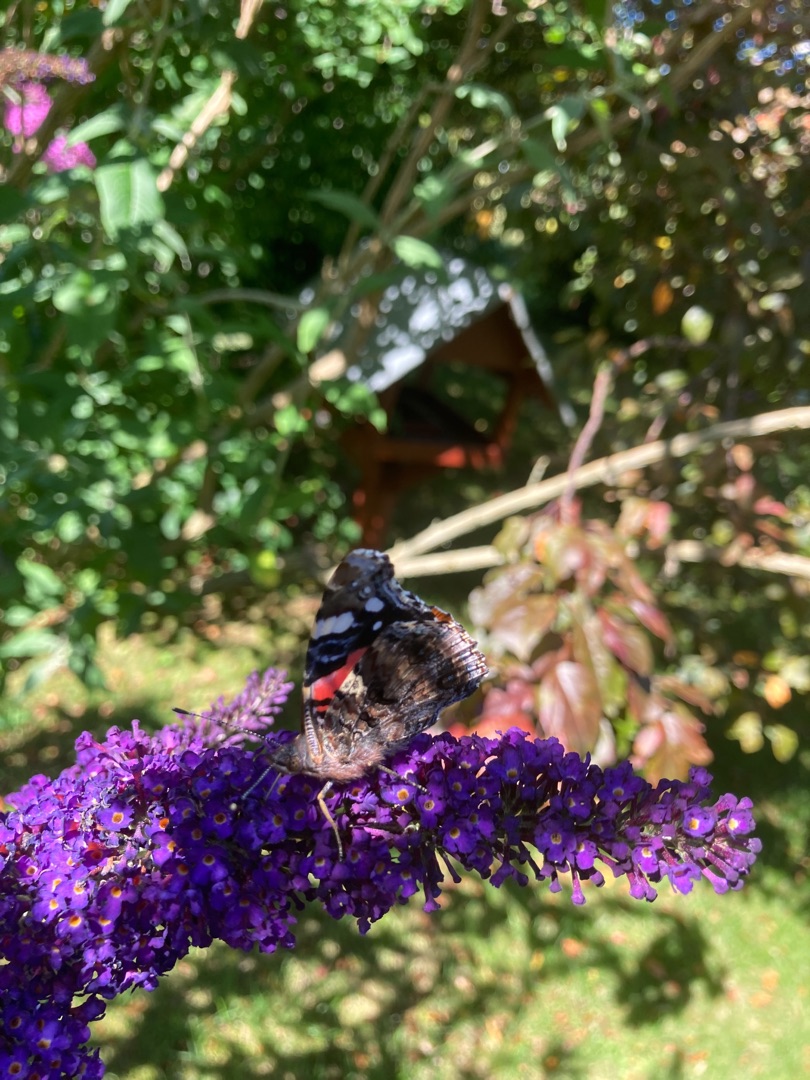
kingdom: Animalia
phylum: Arthropoda
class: Insecta
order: Lepidoptera
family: Nymphalidae
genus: Vanessa
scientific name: Vanessa atalanta
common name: Admiral
